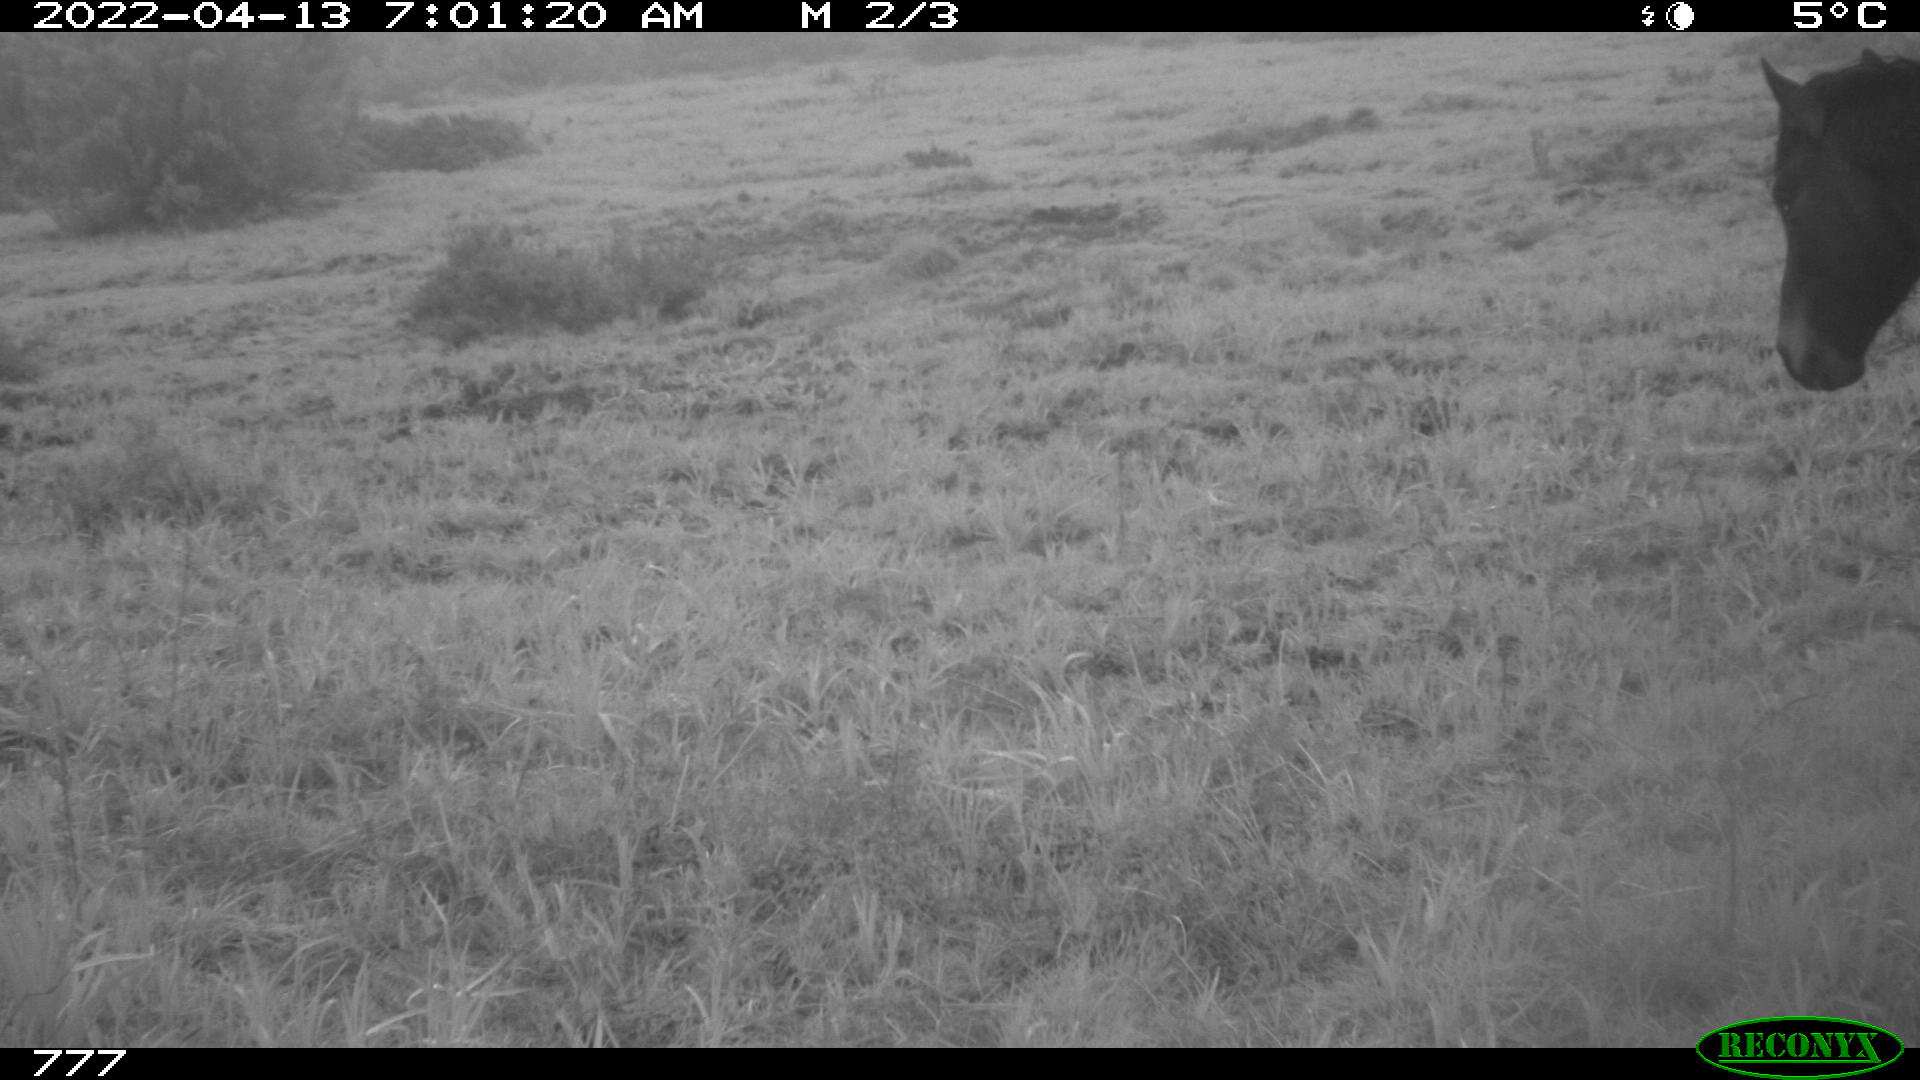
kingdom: Animalia
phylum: Chordata
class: Mammalia
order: Perissodactyla
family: Equidae
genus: Equus
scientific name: Equus caballus
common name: Horse
